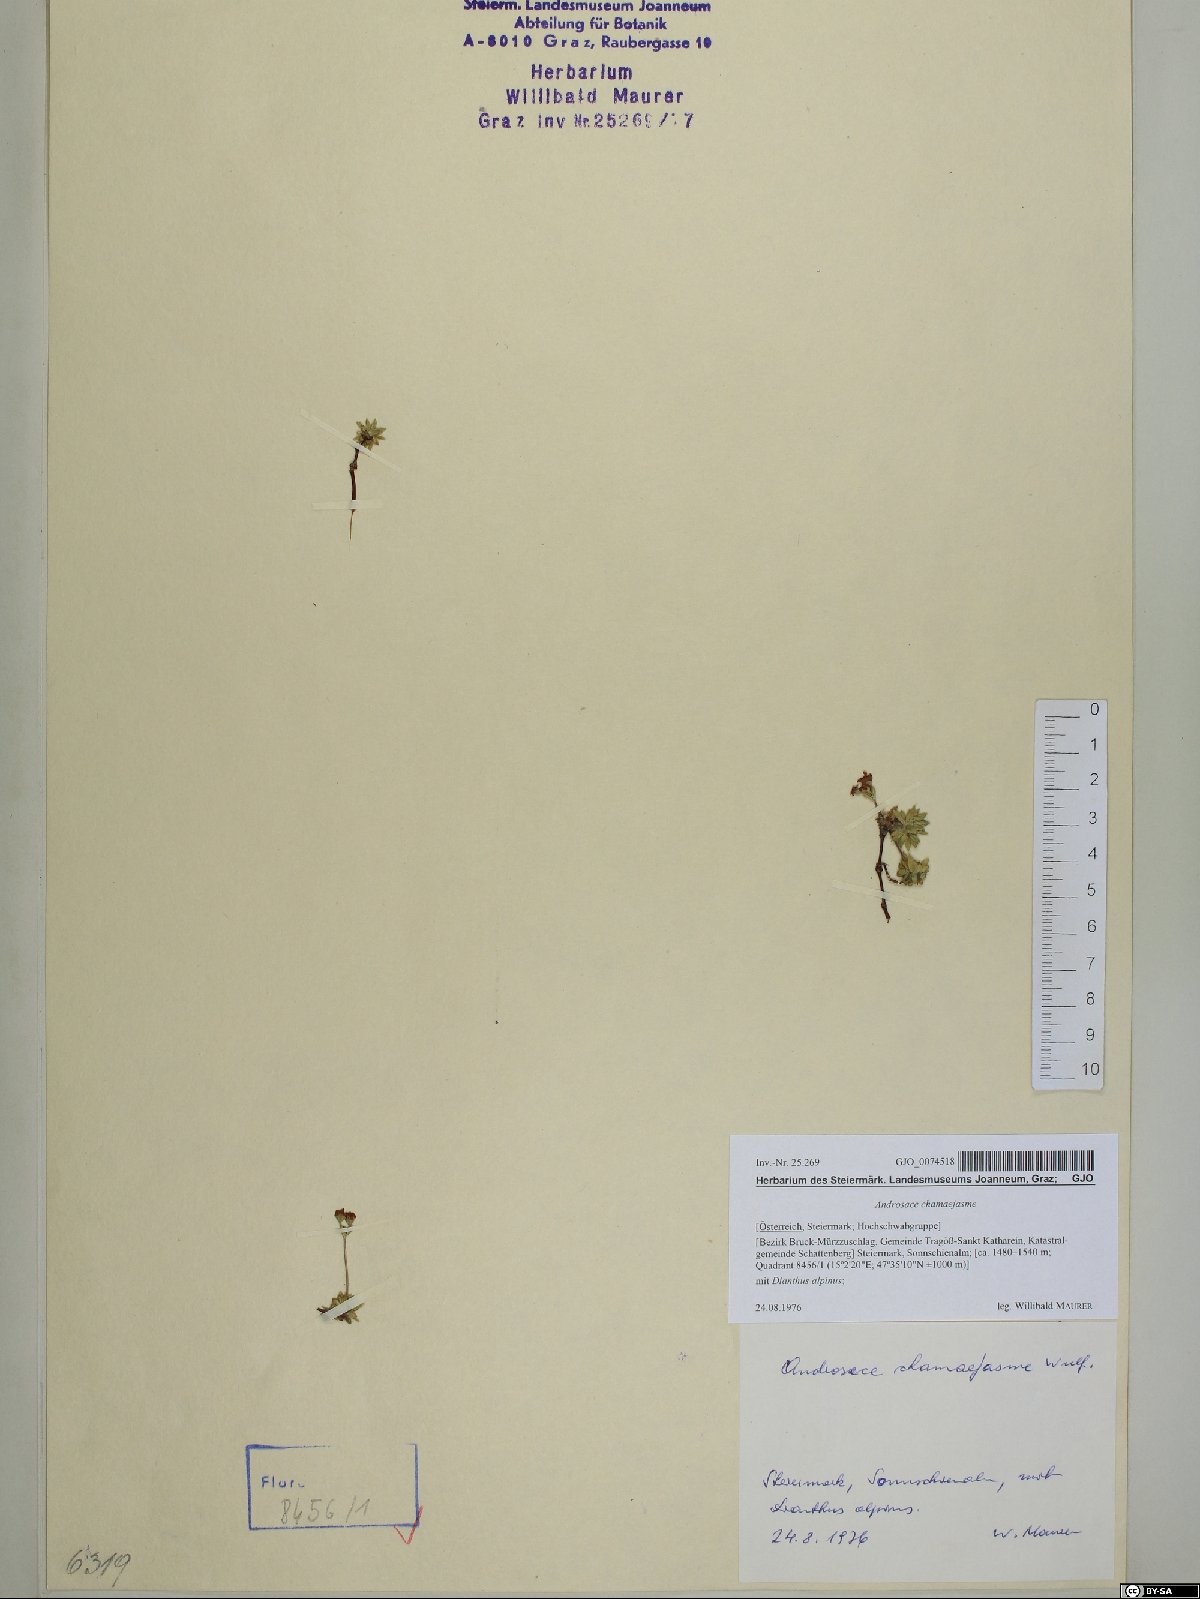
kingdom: Plantae
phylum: Tracheophyta
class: Magnoliopsida
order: Ericales
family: Primulaceae
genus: Androsace
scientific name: Androsace chamaejasme
